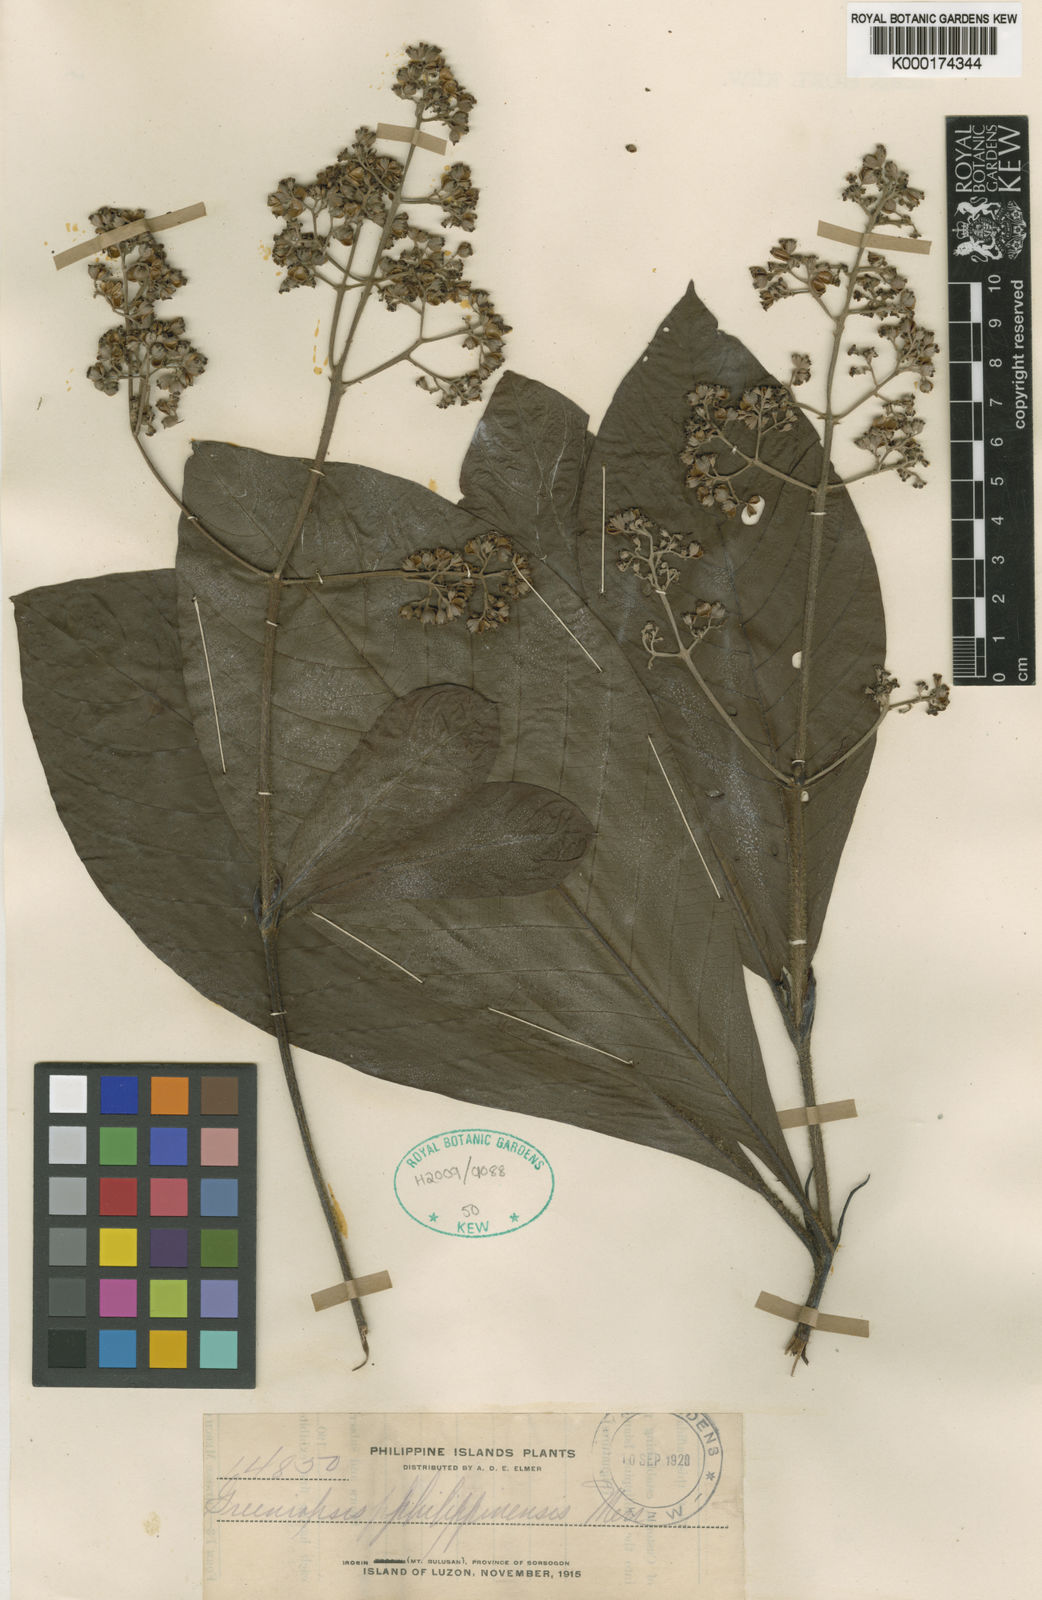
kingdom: Plantae
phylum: Tracheophyta
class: Magnoliopsida
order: Gentianales
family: Rubiaceae
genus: Greeniopsis
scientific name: Greeniopsis multiflora
